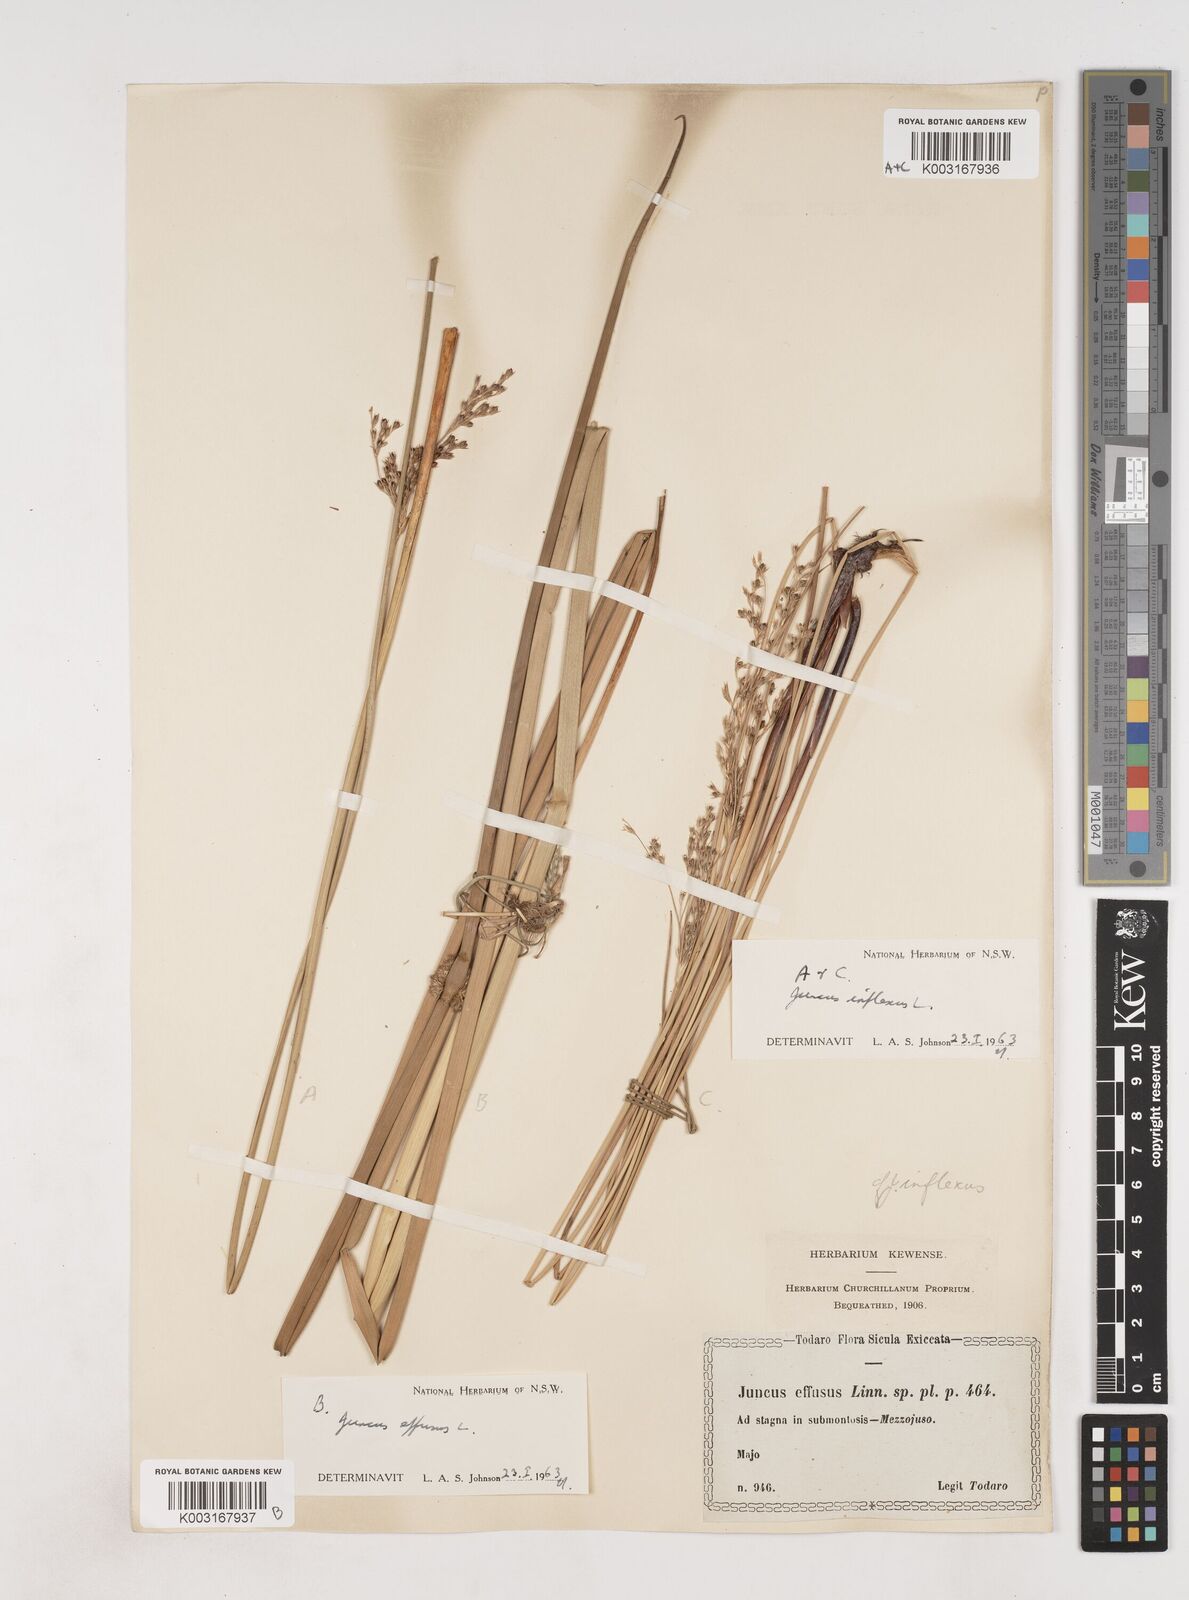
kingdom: Plantae
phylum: Tracheophyta
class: Liliopsida
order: Poales
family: Juncaceae
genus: Juncus
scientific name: Juncus effusus
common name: Soft rush
